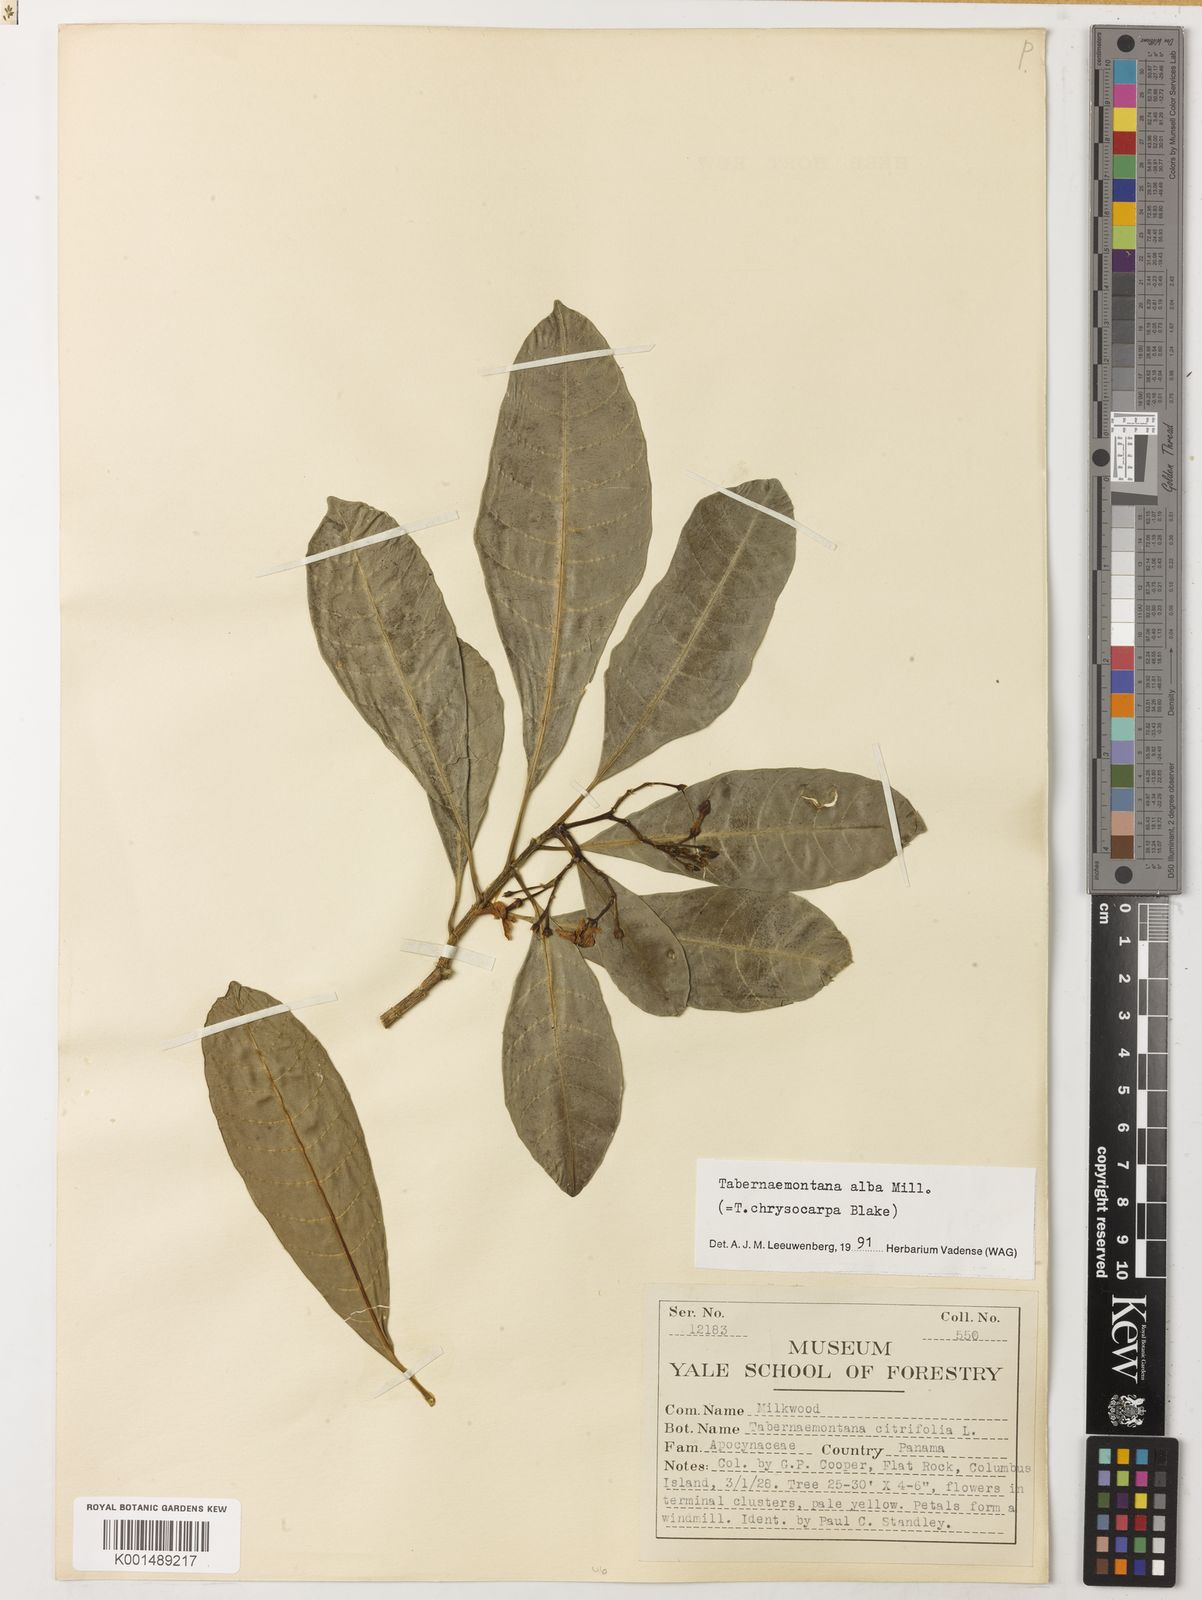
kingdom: Plantae
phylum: Tracheophyta
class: Magnoliopsida
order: Gentianales
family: Apocynaceae
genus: Tabernaemontana
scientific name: Tabernaemontana alba
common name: White milkwood
